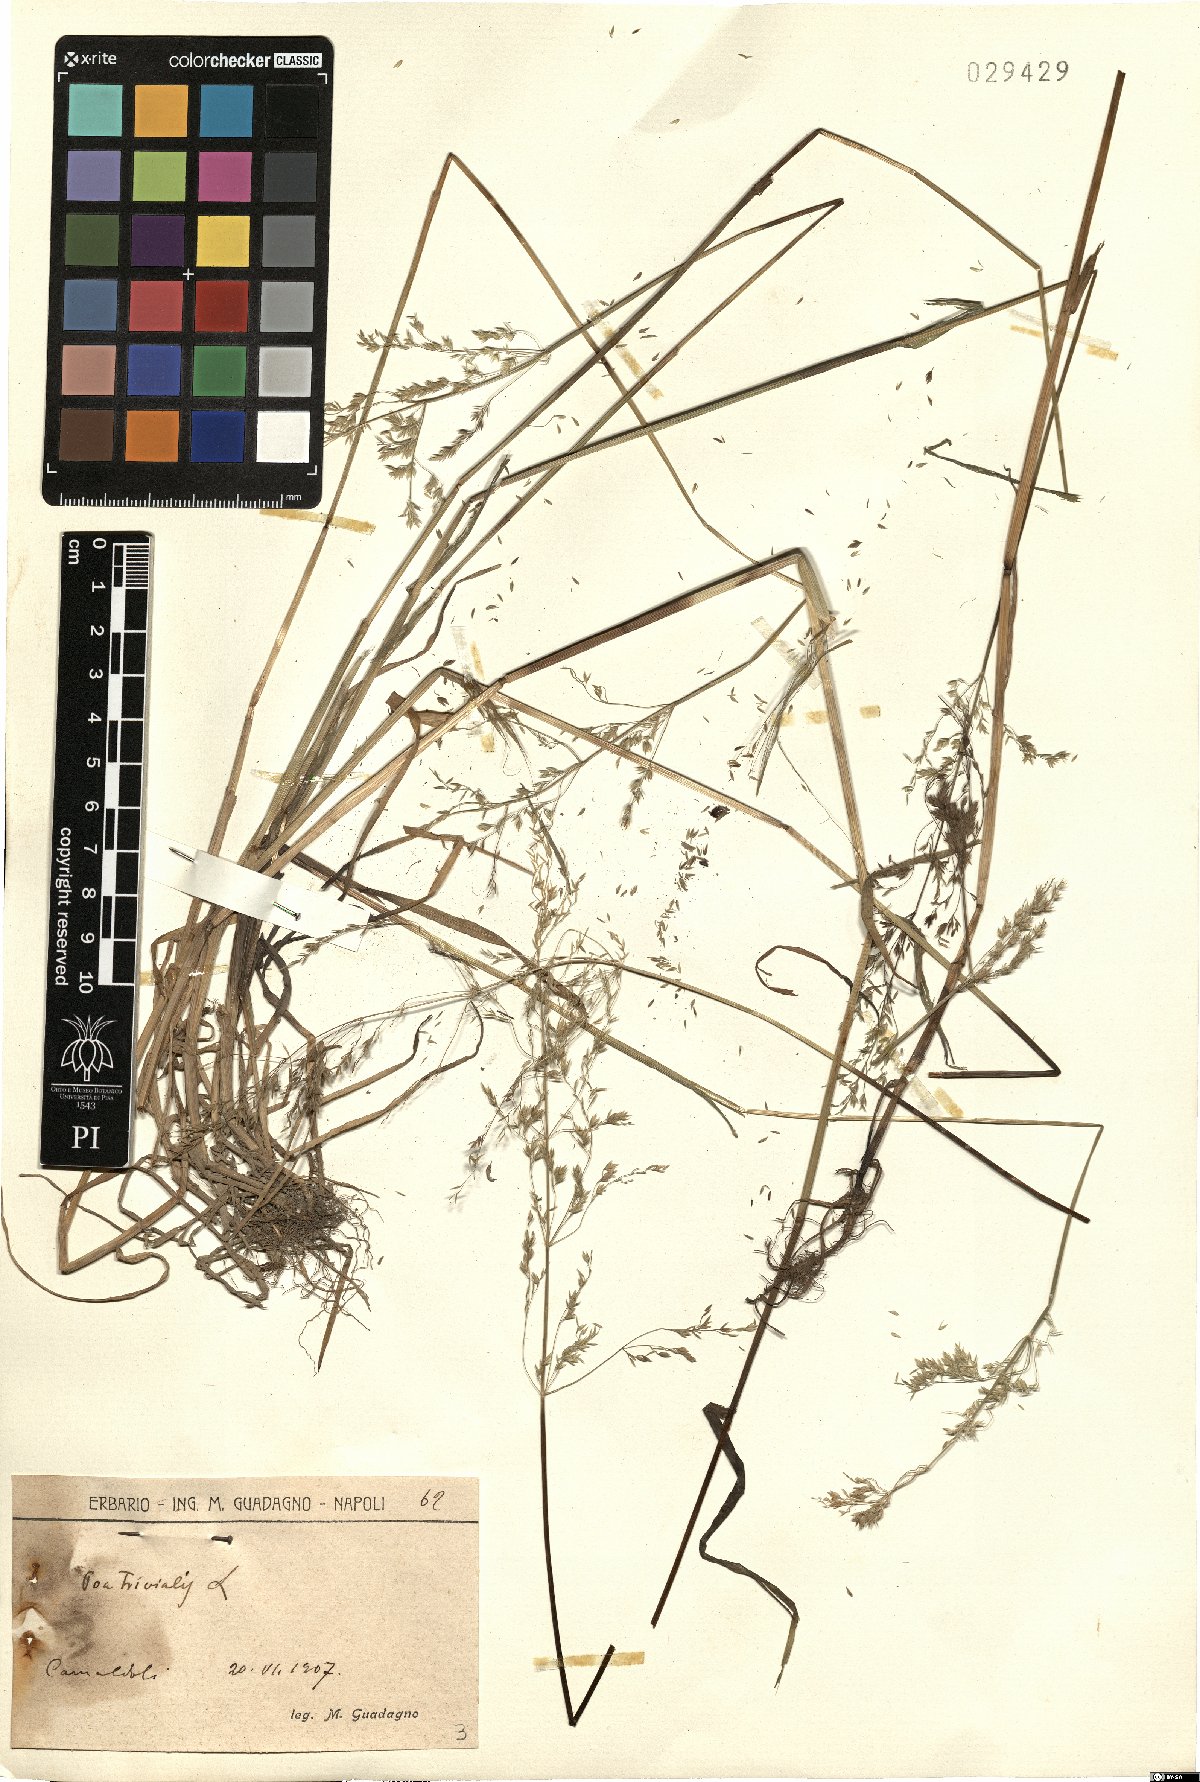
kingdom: Plantae
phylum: Tracheophyta
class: Liliopsida
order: Poales
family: Poaceae
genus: Poa
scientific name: Poa trivialis
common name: Rough bluegrass
